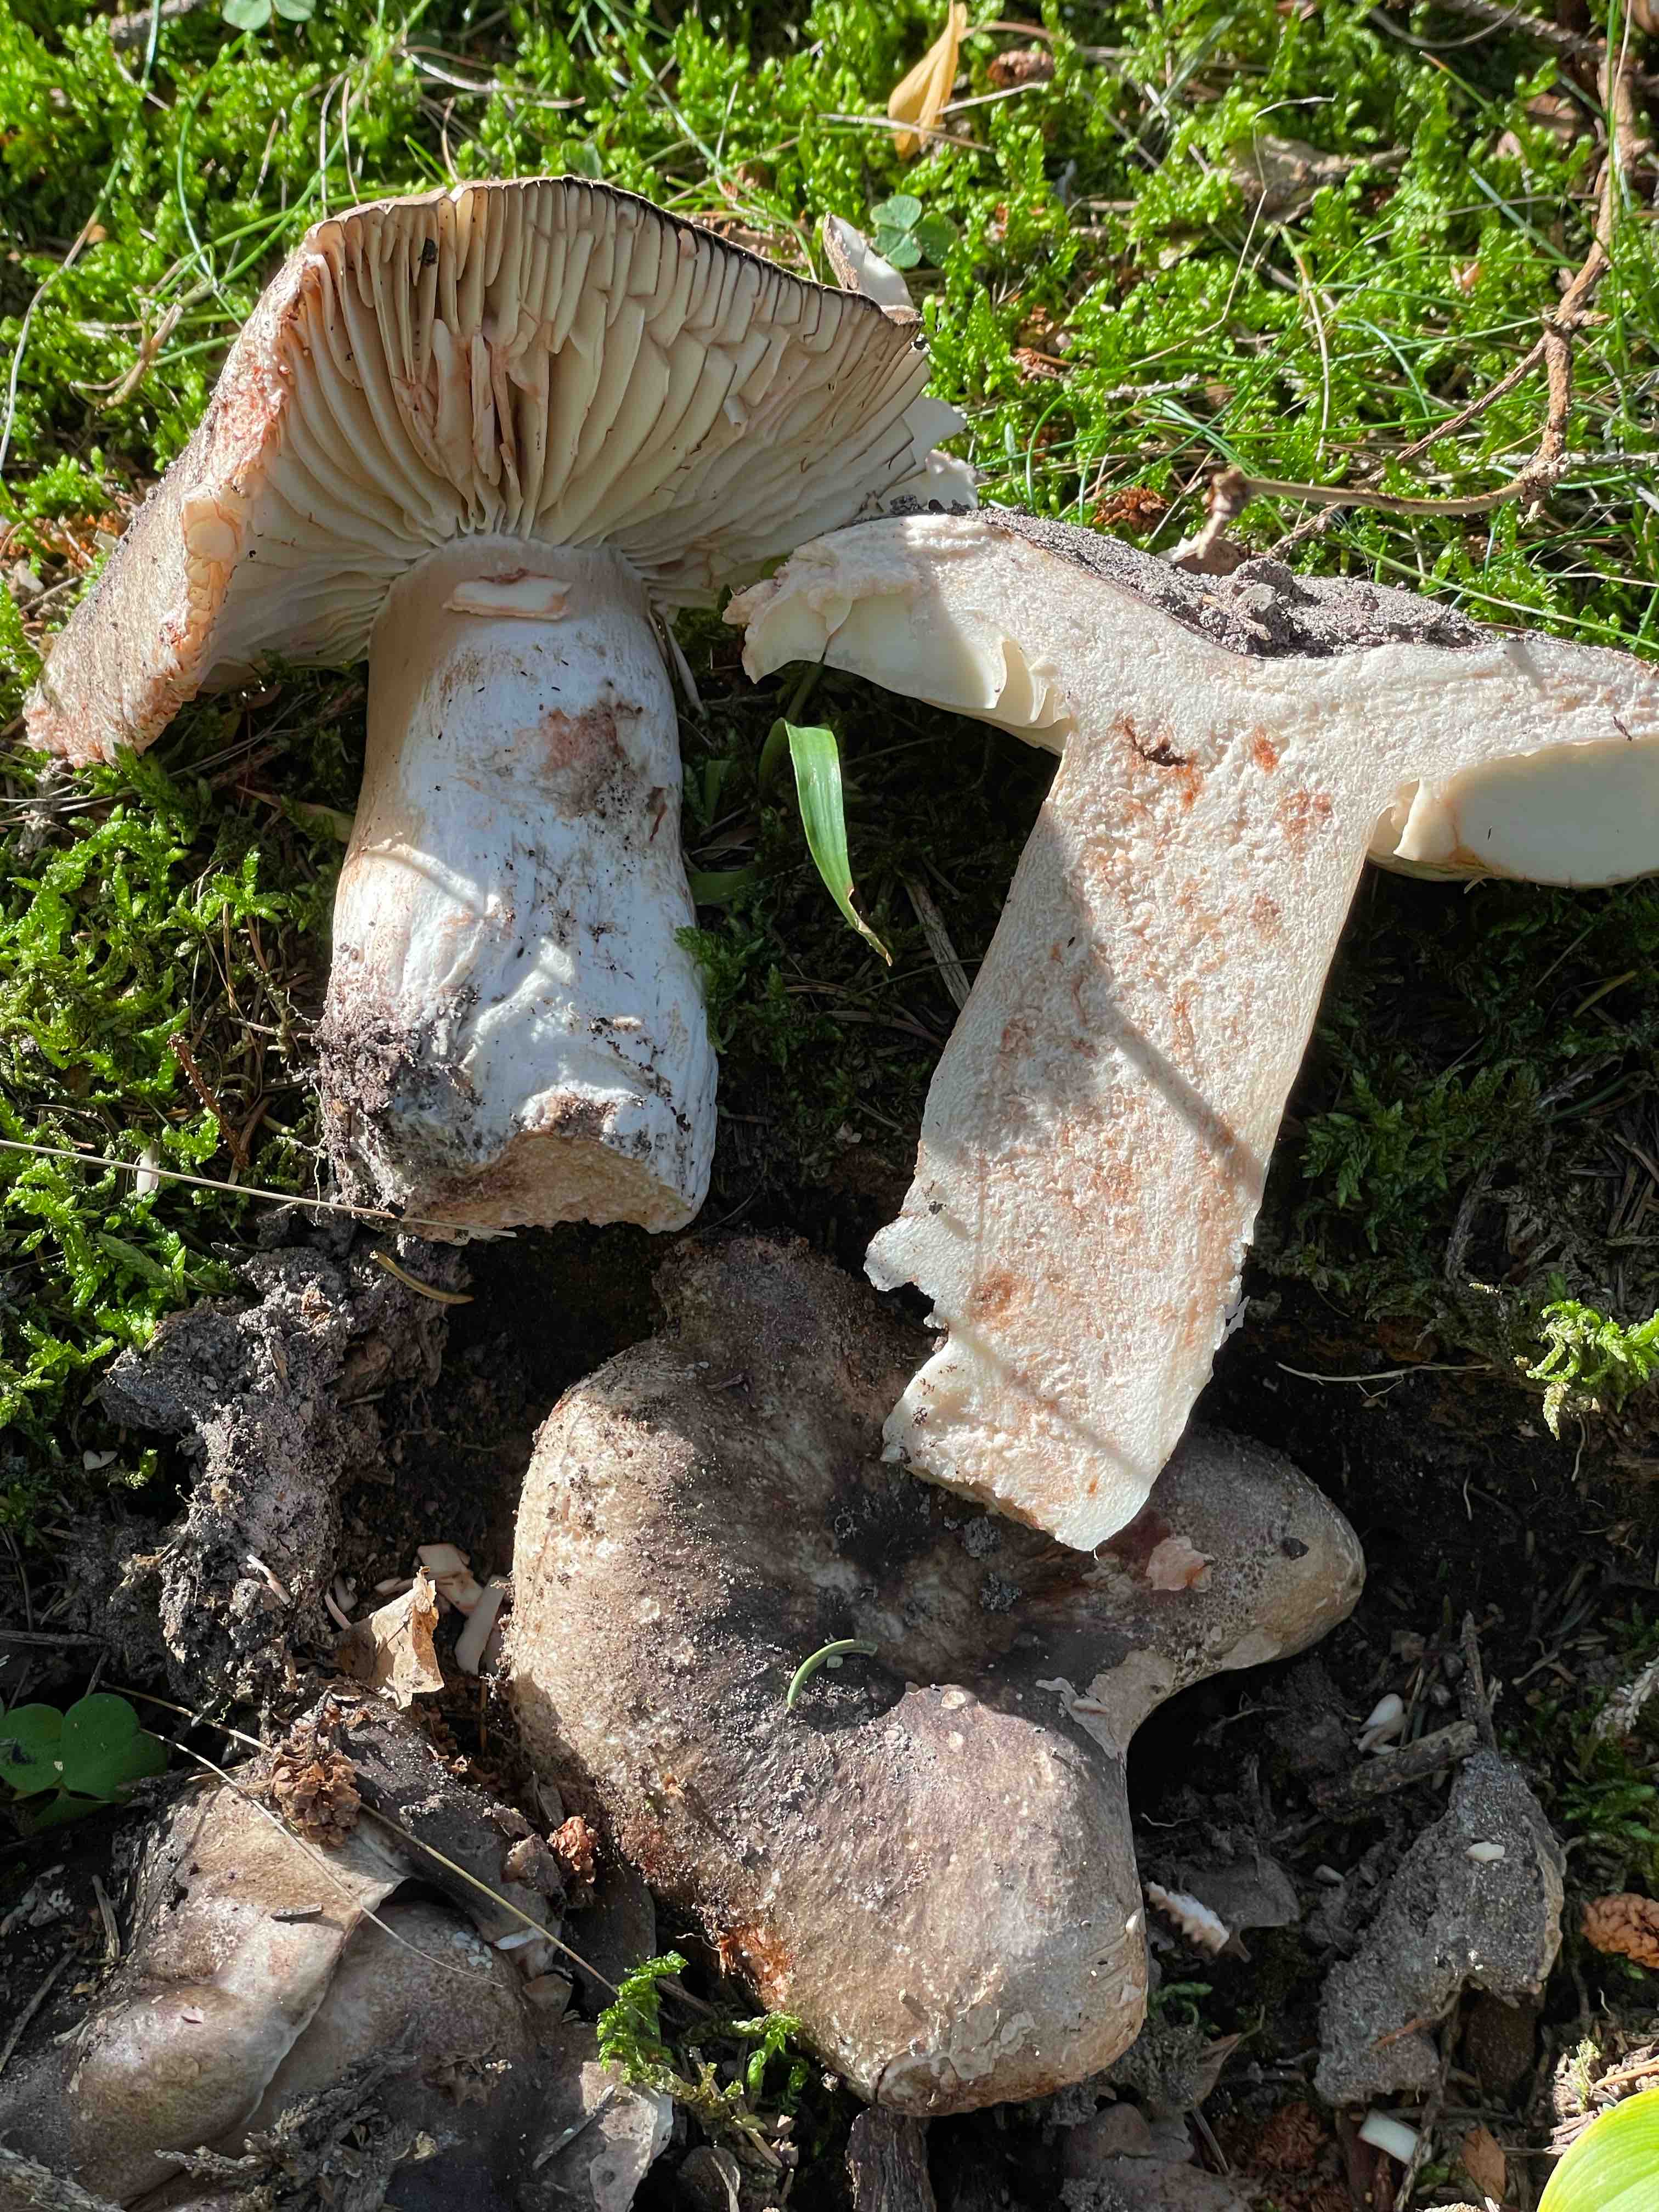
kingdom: Fungi
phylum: Basidiomycota
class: Agaricomycetes
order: Russulales
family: Russulaceae
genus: Russula
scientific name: Russula adusta
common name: sværtende skørhat
